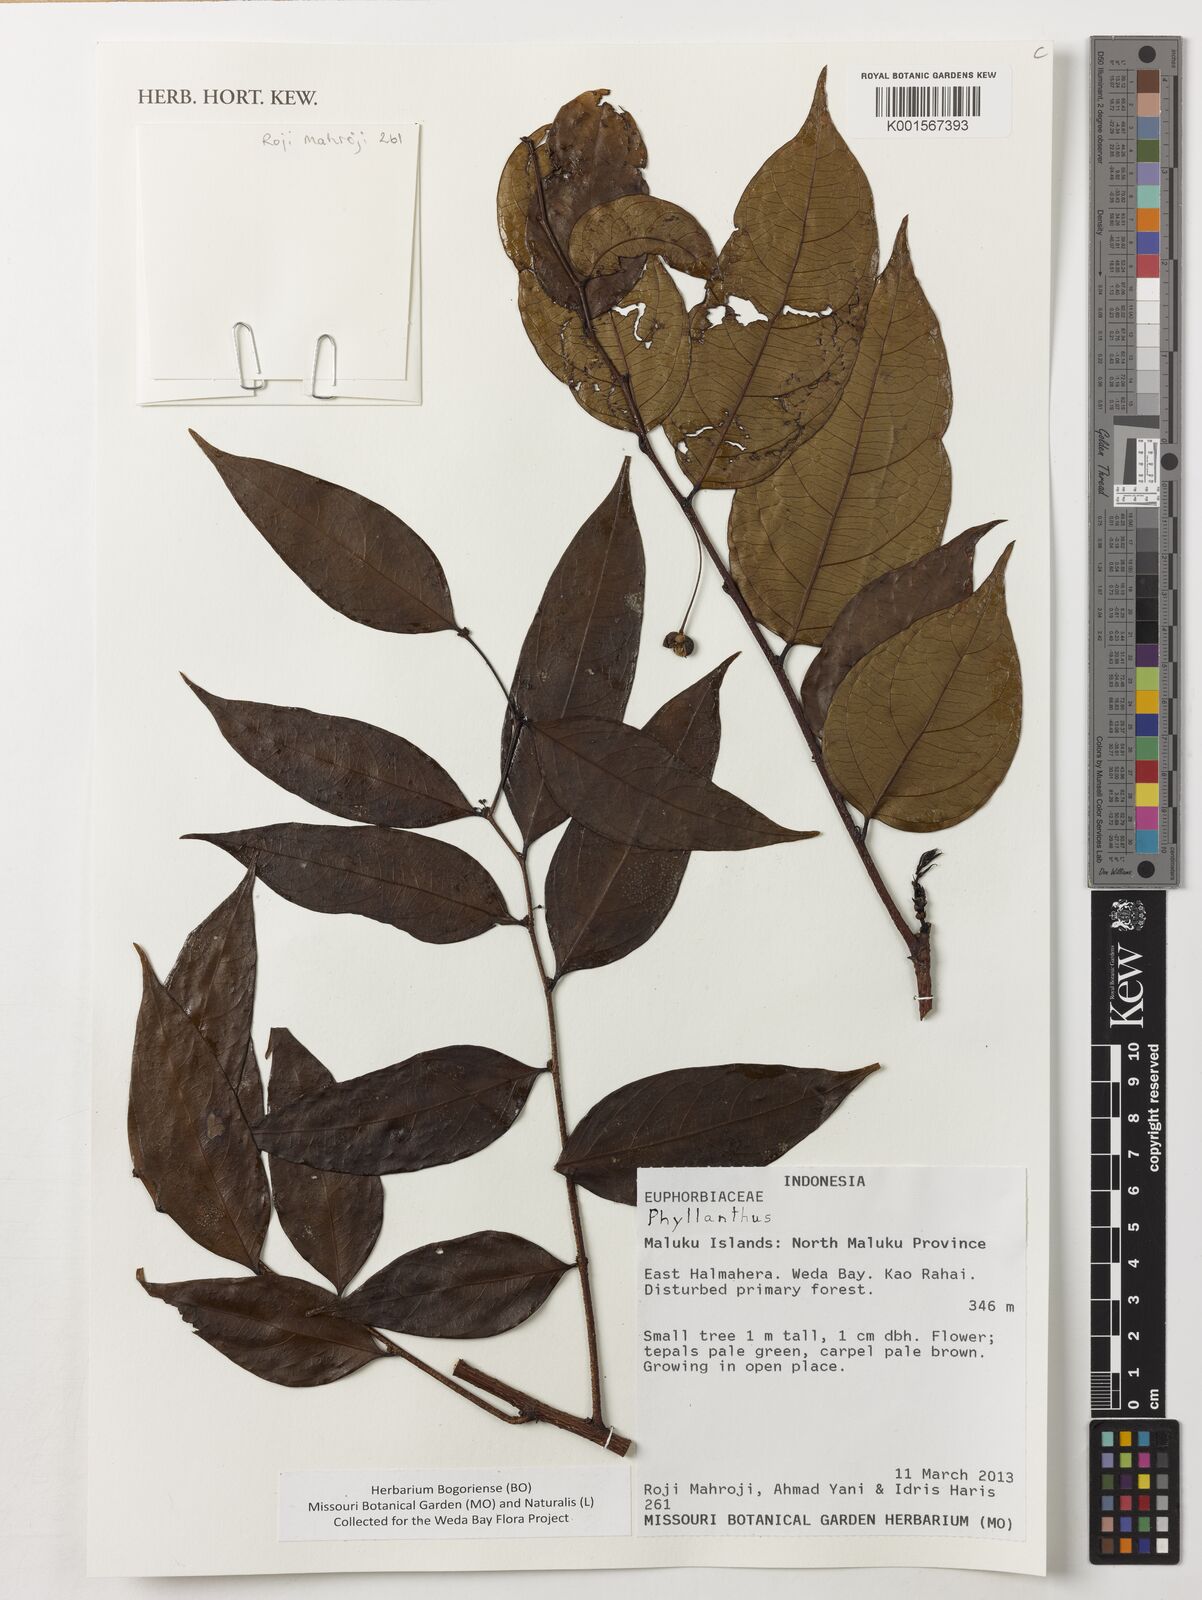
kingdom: Plantae
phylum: Tracheophyta
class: Magnoliopsida
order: Malpighiales
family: Phyllanthaceae
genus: Phyllanthus
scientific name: Phyllanthus
